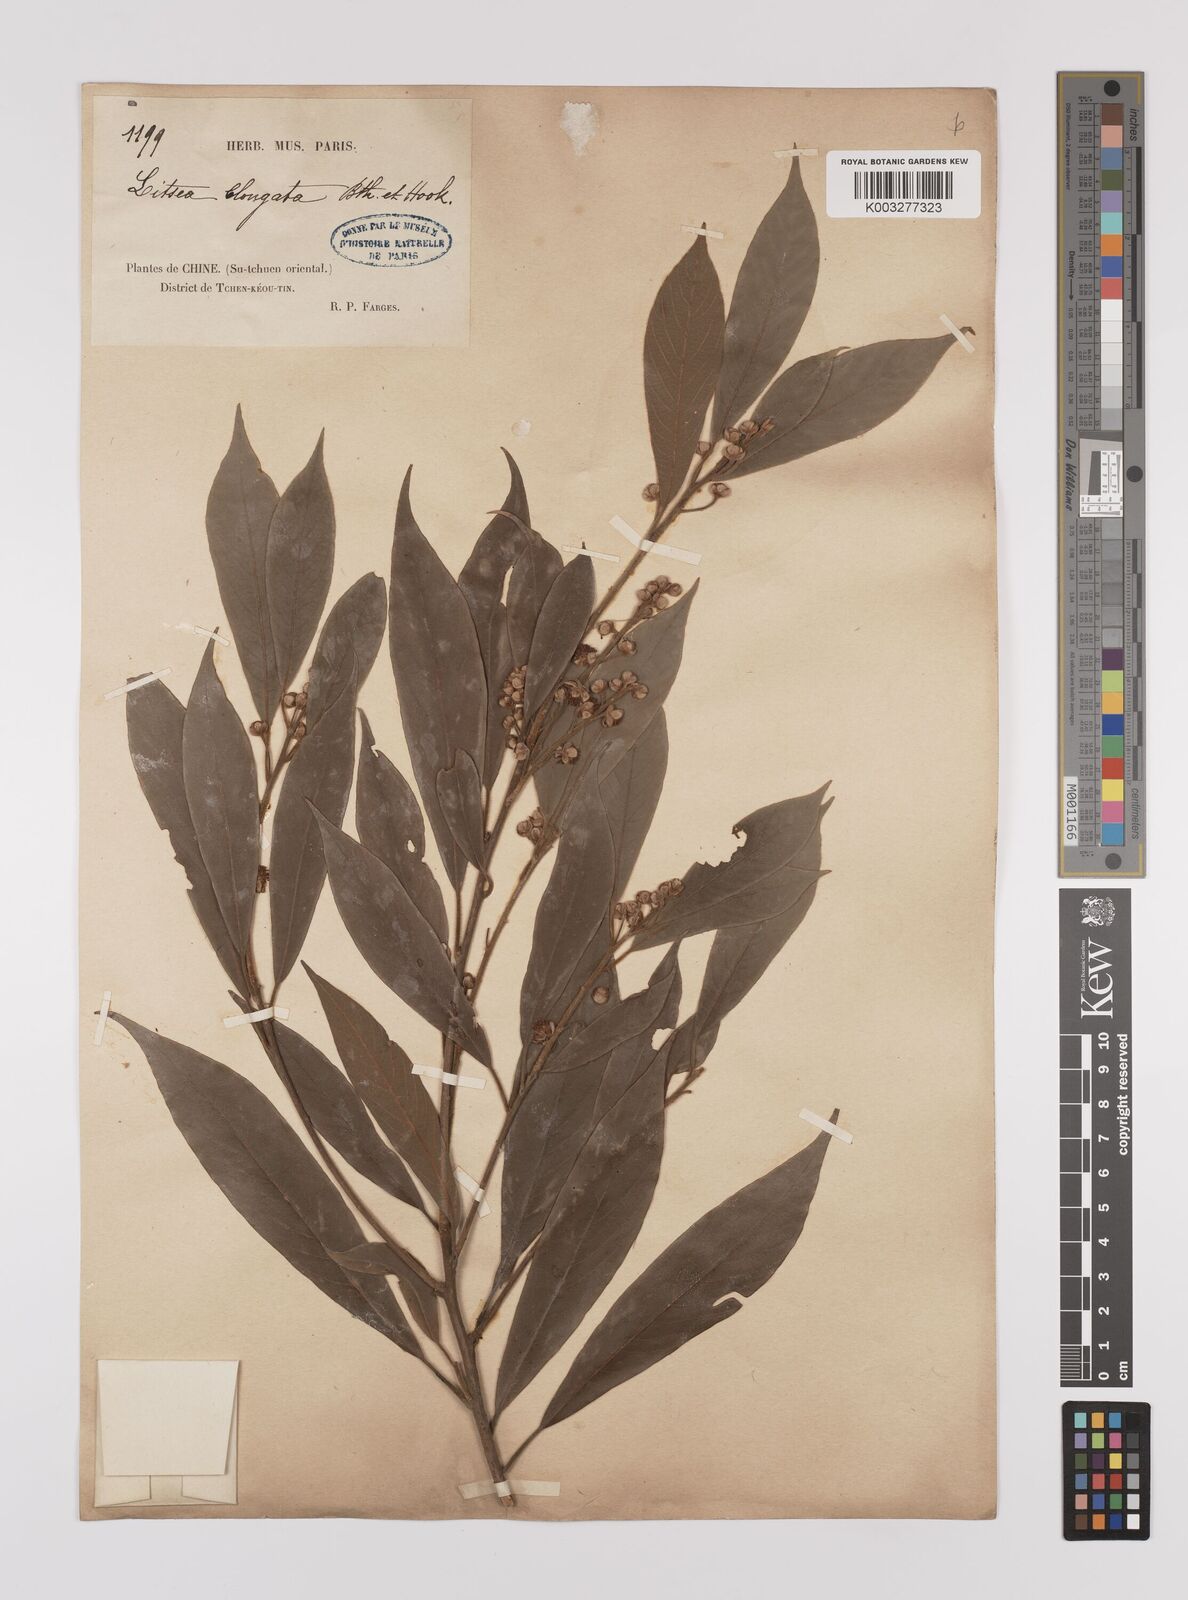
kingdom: Plantae
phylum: Tracheophyta
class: Magnoliopsida
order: Laurales
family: Lauraceae
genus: Litsea
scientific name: Litsea elongata
